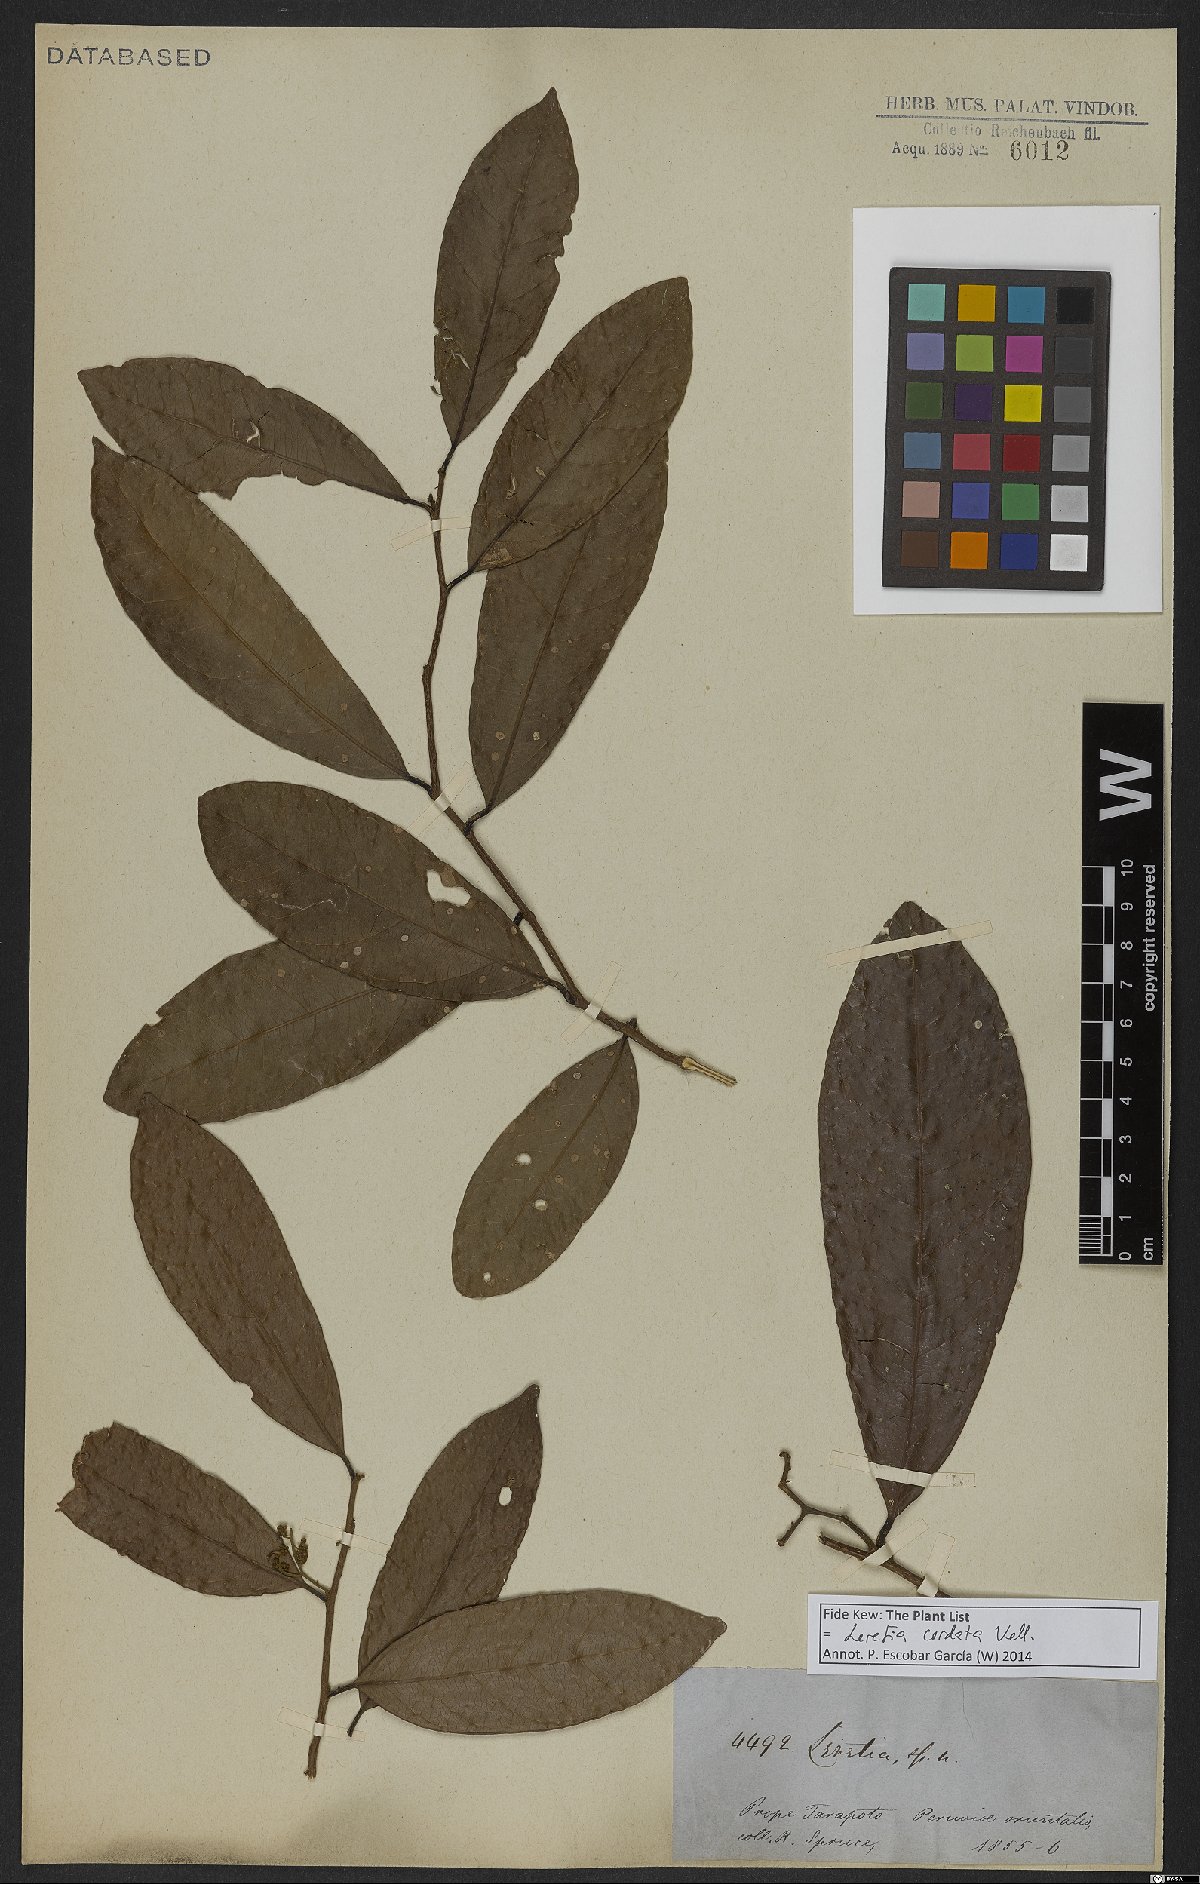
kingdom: Plantae
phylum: Tracheophyta
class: Magnoliopsida
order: Icacinales
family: Icacinaceae
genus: Leretia
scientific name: Leretia cordata
